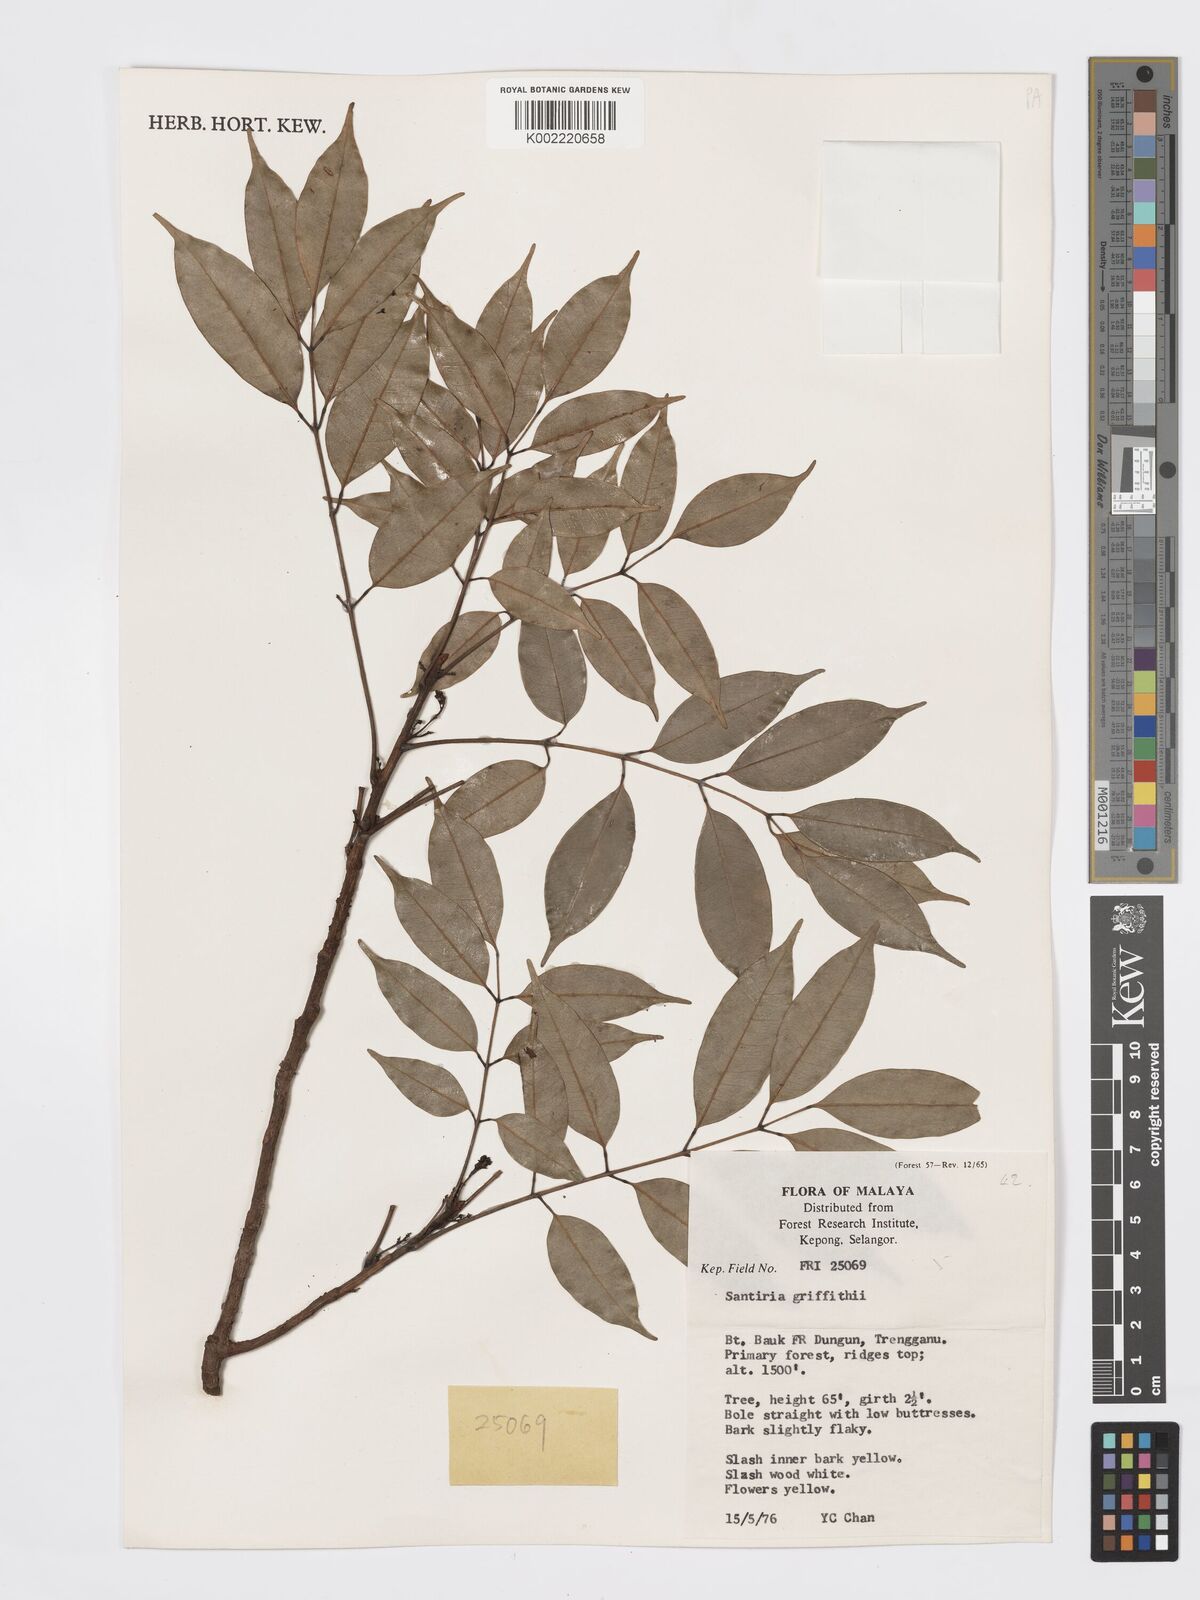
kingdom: Plantae
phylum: Tracheophyta
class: Magnoliopsida
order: Sapindales
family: Burseraceae
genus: Santiria
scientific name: Santiria griffithii
